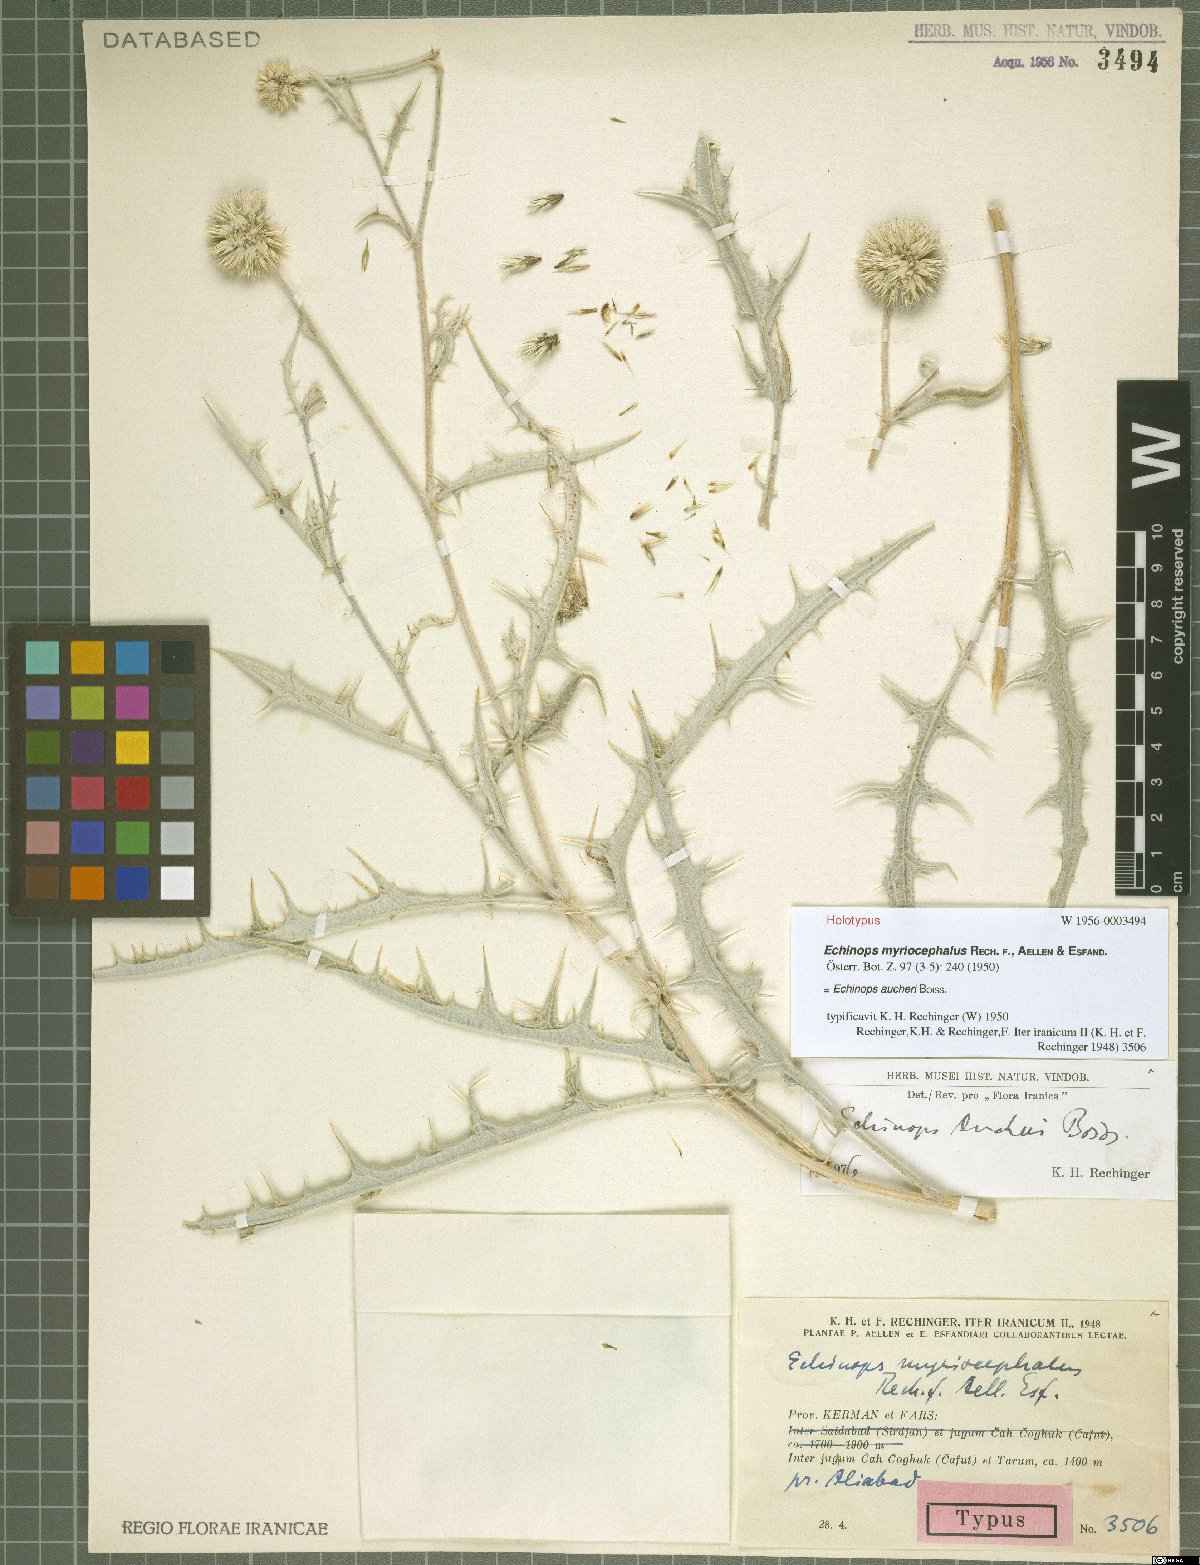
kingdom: Plantae
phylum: Tracheophyta
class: Magnoliopsida
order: Asterales
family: Asteraceae
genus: Echinops
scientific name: Echinops aucheri
